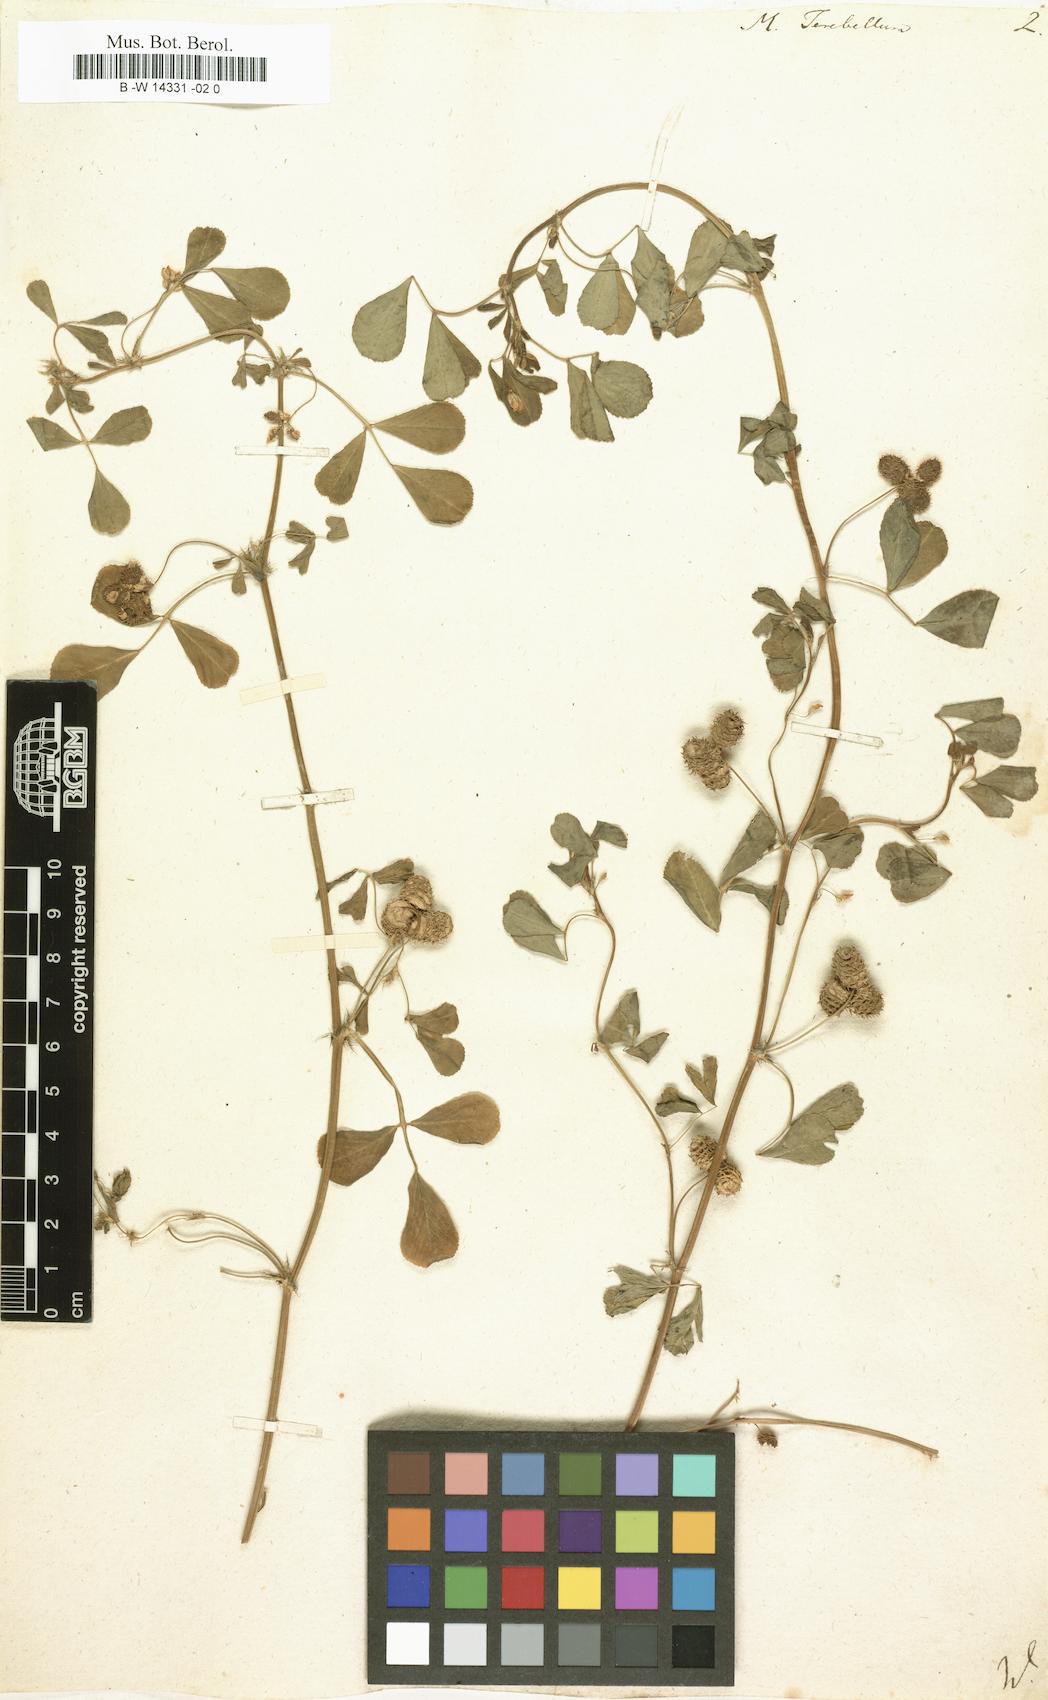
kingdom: Plantae
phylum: Tracheophyta
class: Magnoliopsida
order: Fabales
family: Fabaceae
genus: Medicago
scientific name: Medicago polymorpha
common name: Burclover
